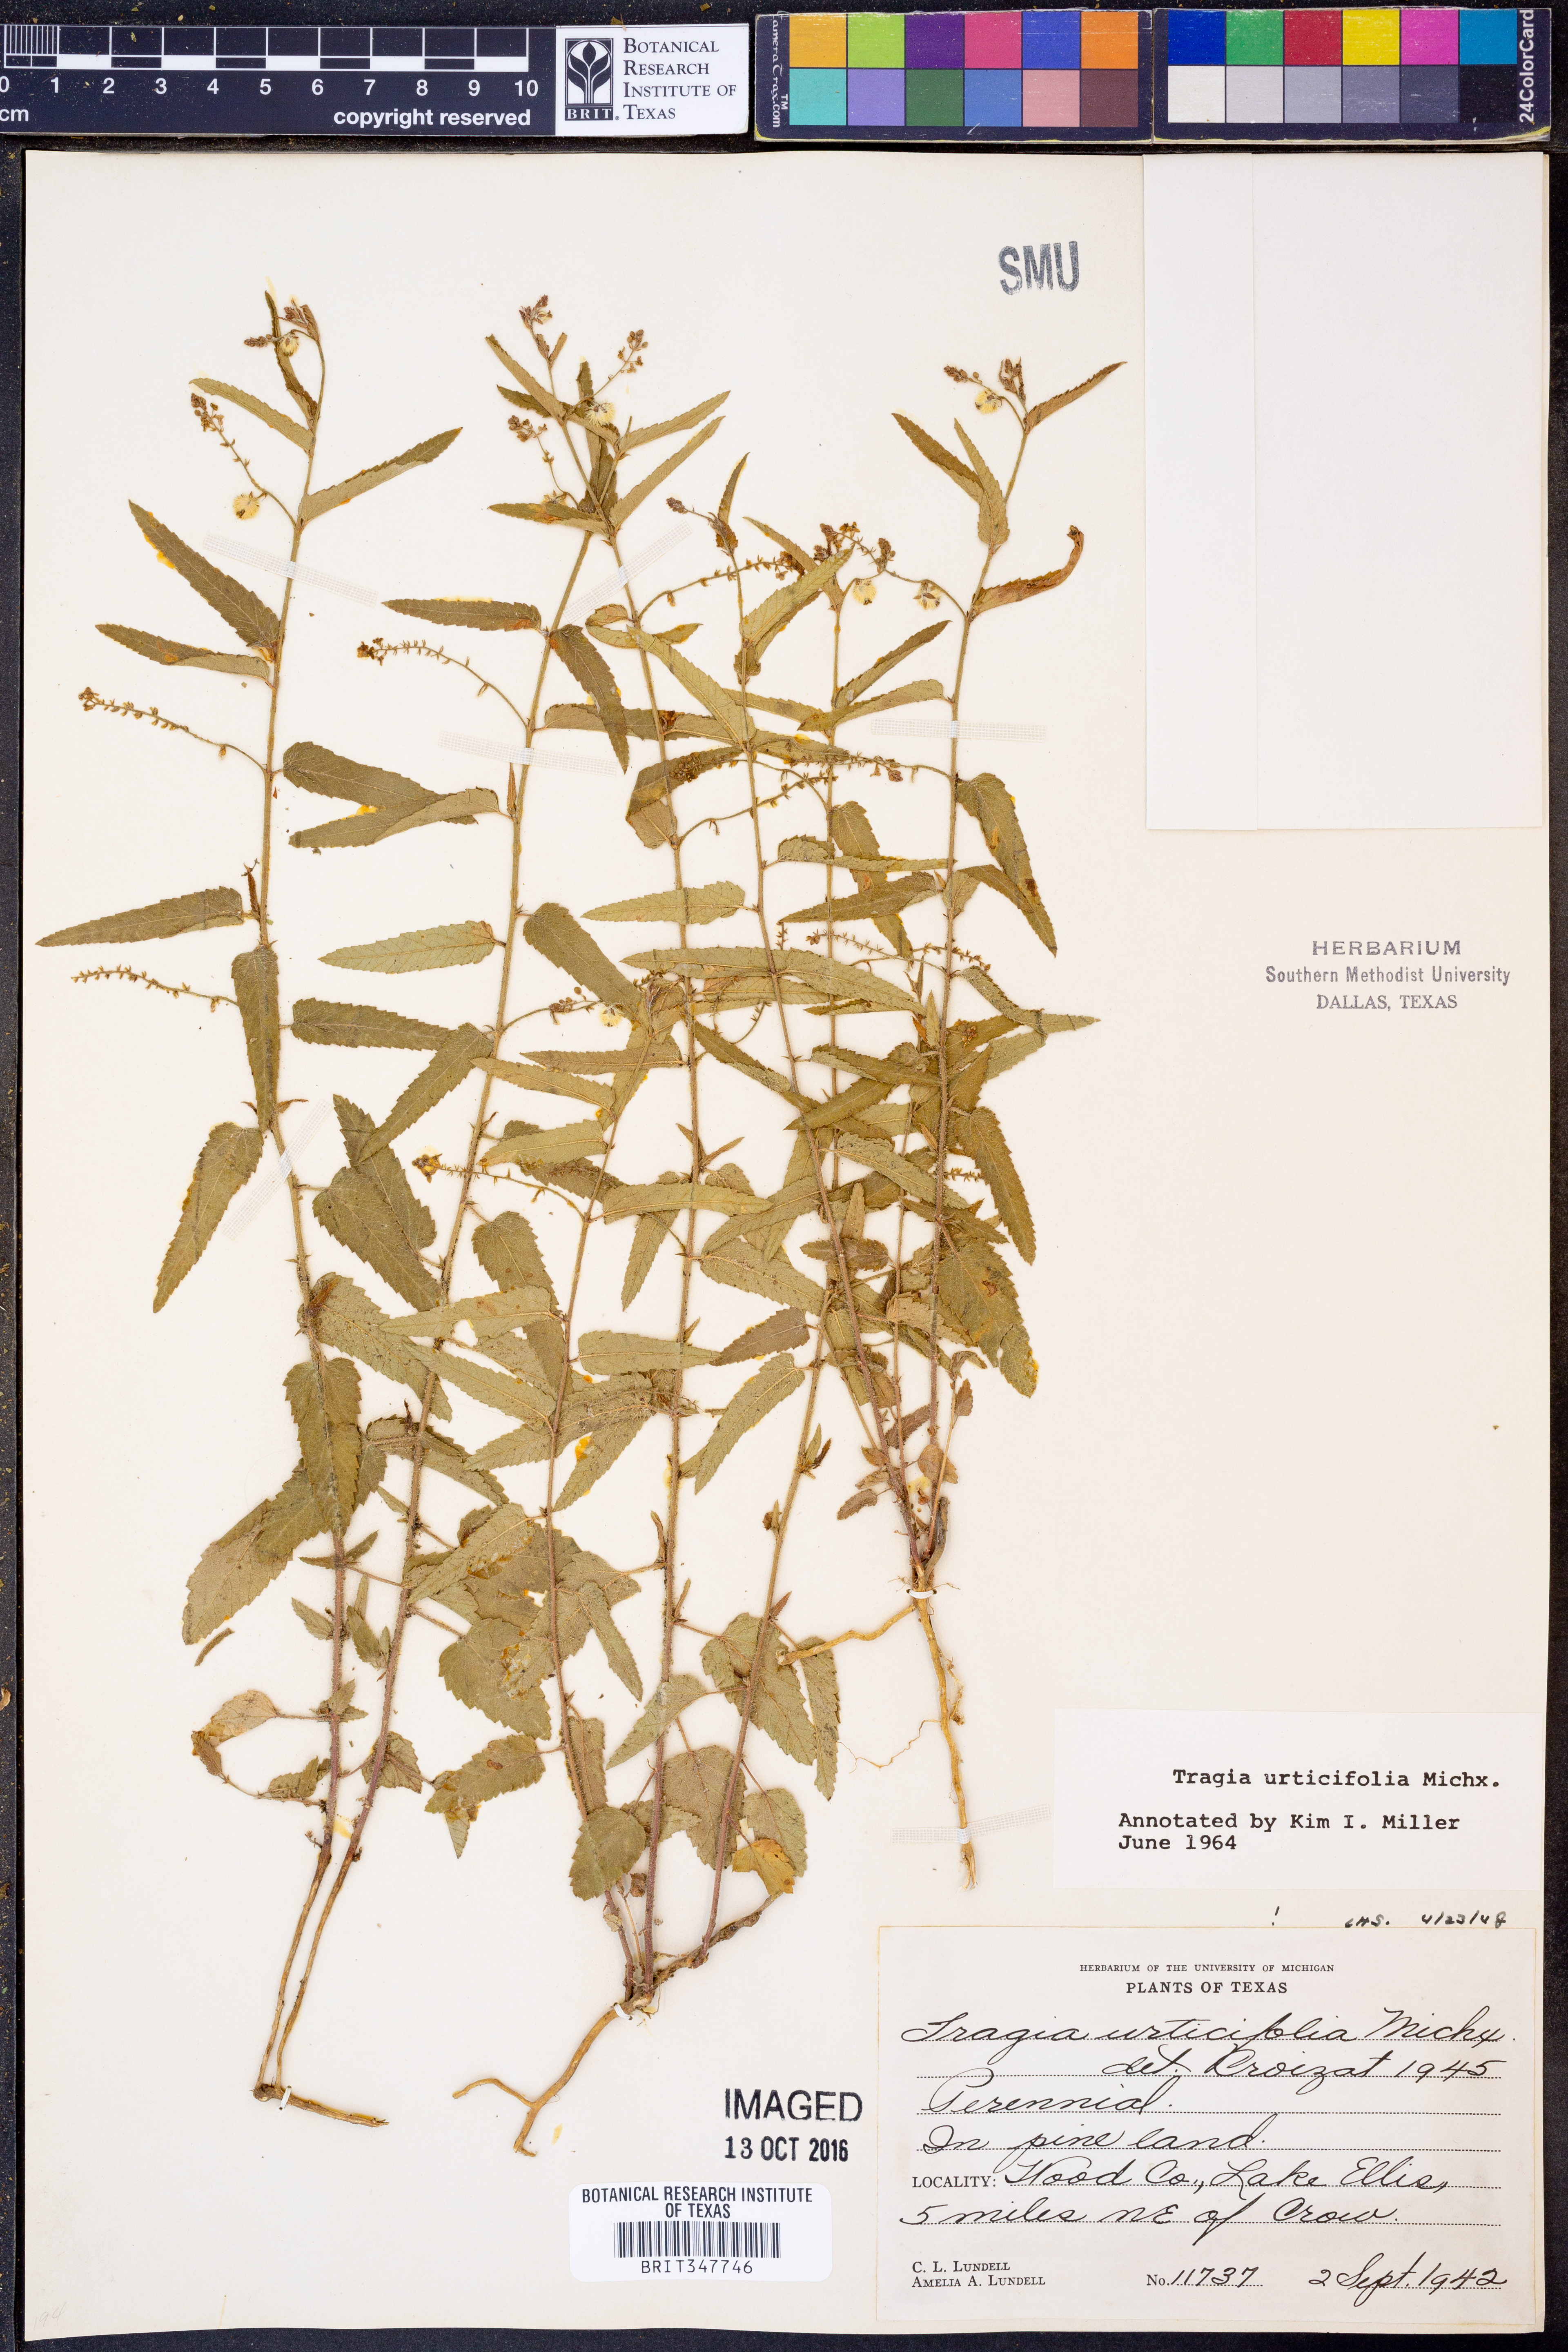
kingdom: Plantae
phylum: Tracheophyta
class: Magnoliopsida
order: Malpighiales
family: Euphorbiaceae
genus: Tragia
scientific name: Tragia urticifolia
